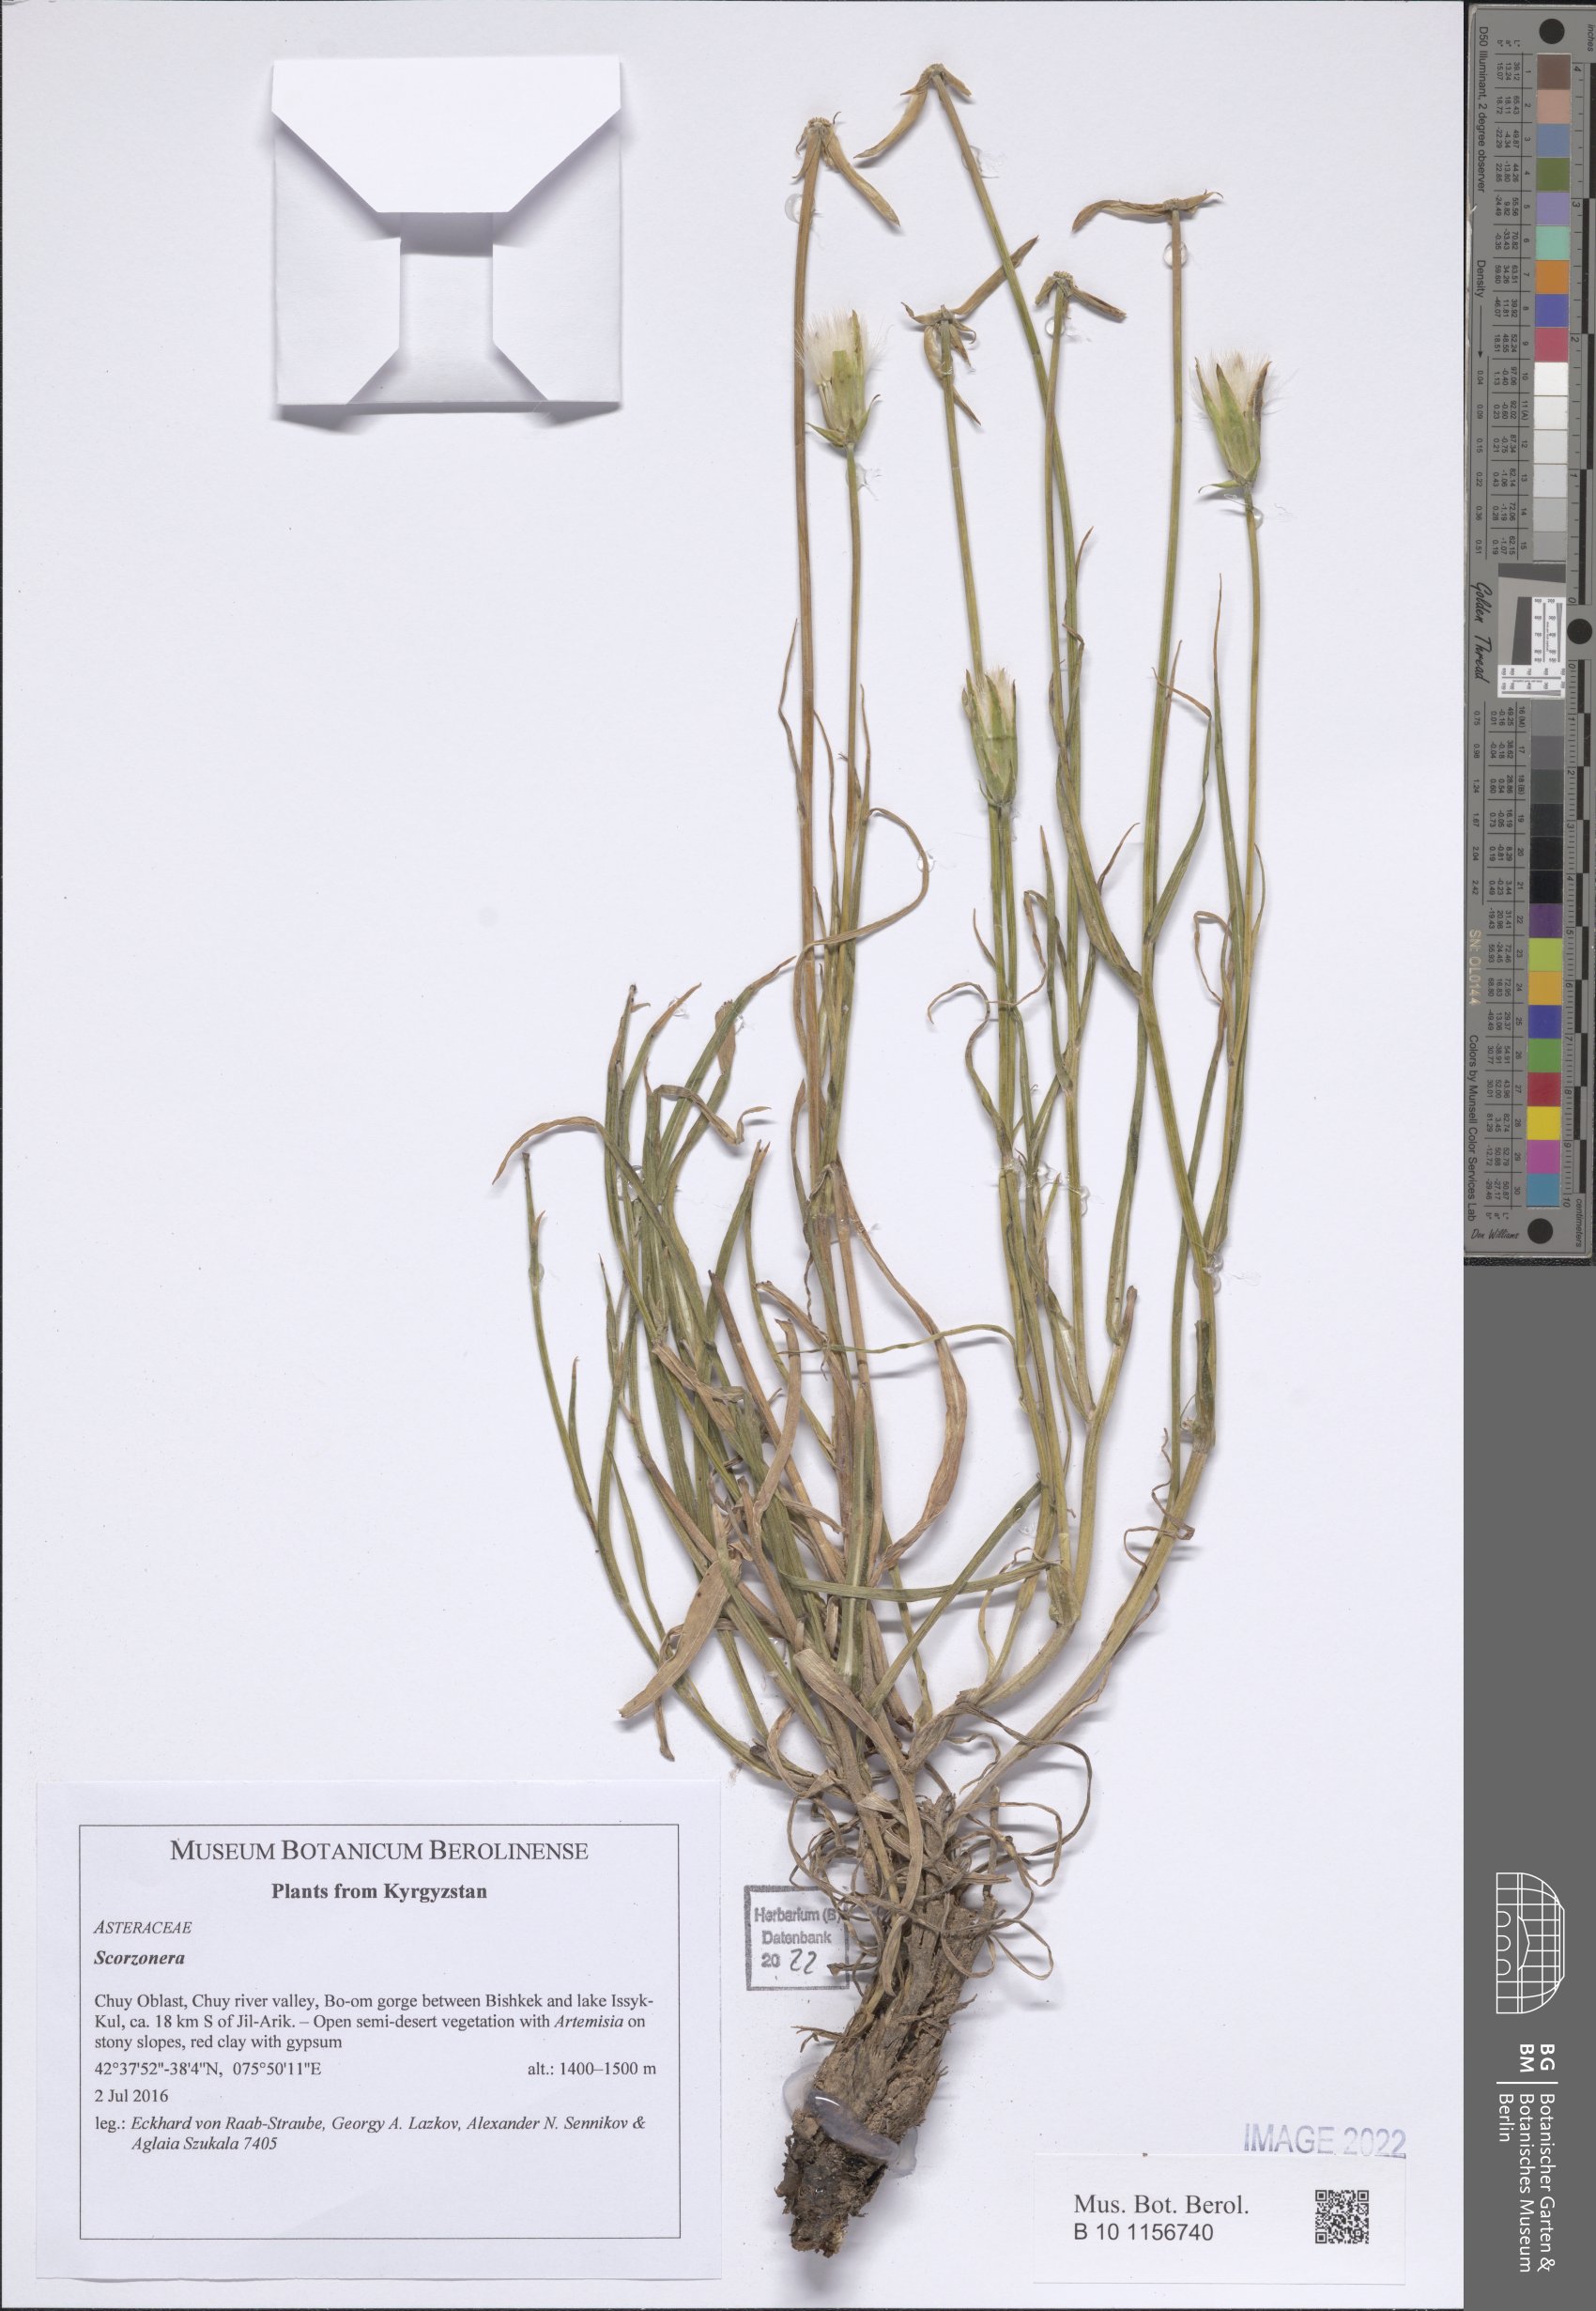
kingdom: Plantae
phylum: Tracheophyta
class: Magnoliopsida
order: Asterales
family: Asteraceae
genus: Scorzonera
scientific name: Scorzonera
